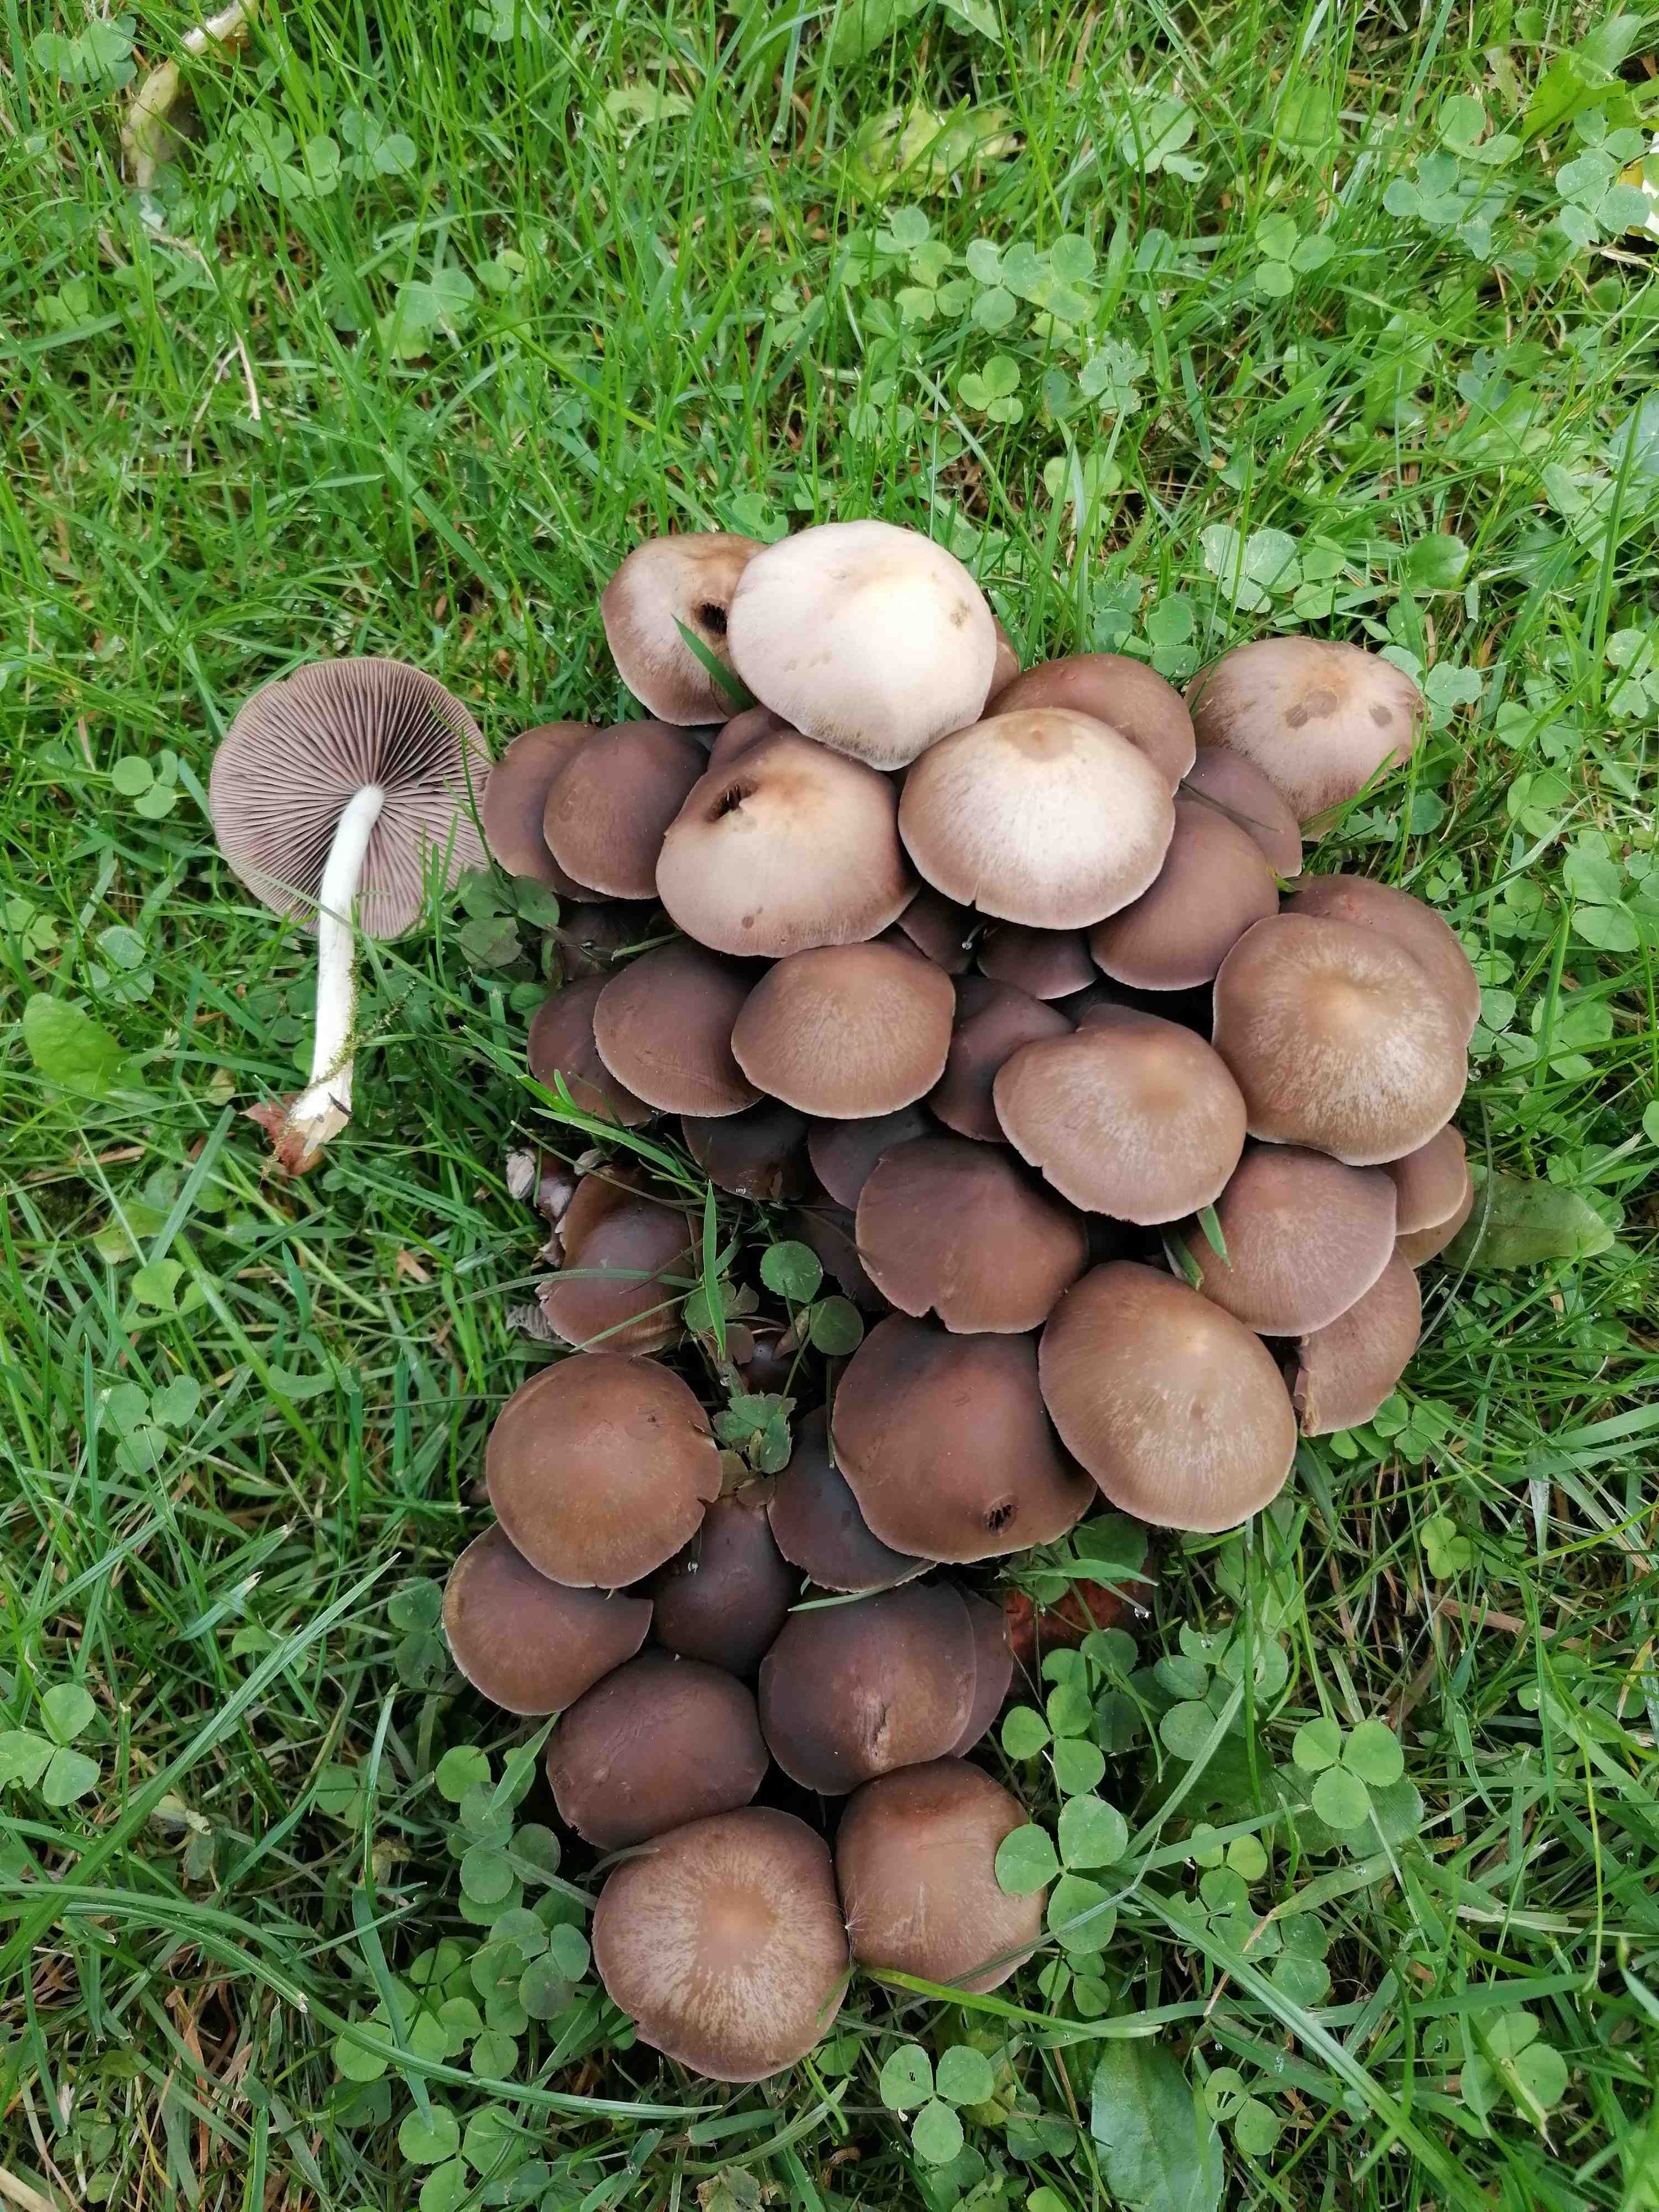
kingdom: Fungi
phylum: Basidiomycota
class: Agaricomycetes
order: Agaricales
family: Psathyrellaceae
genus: Britzelmayria
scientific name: Britzelmayria multipedata
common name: knippe-mørkhat
